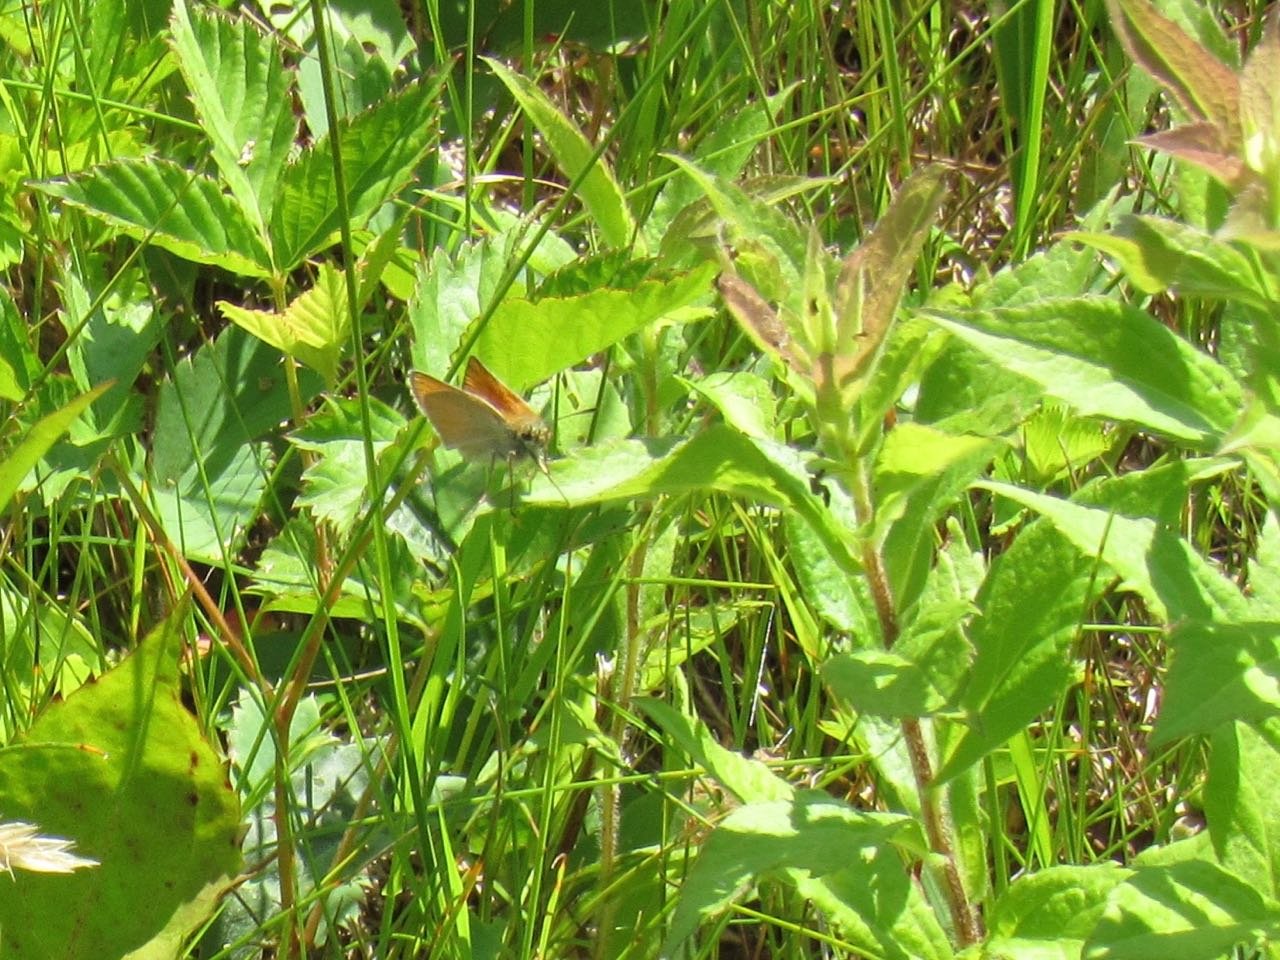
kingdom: Animalia
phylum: Arthropoda
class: Insecta
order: Lepidoptera
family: Hesperiidae
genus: Thymelicus
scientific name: Thymelicus lineola
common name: European Skipper
